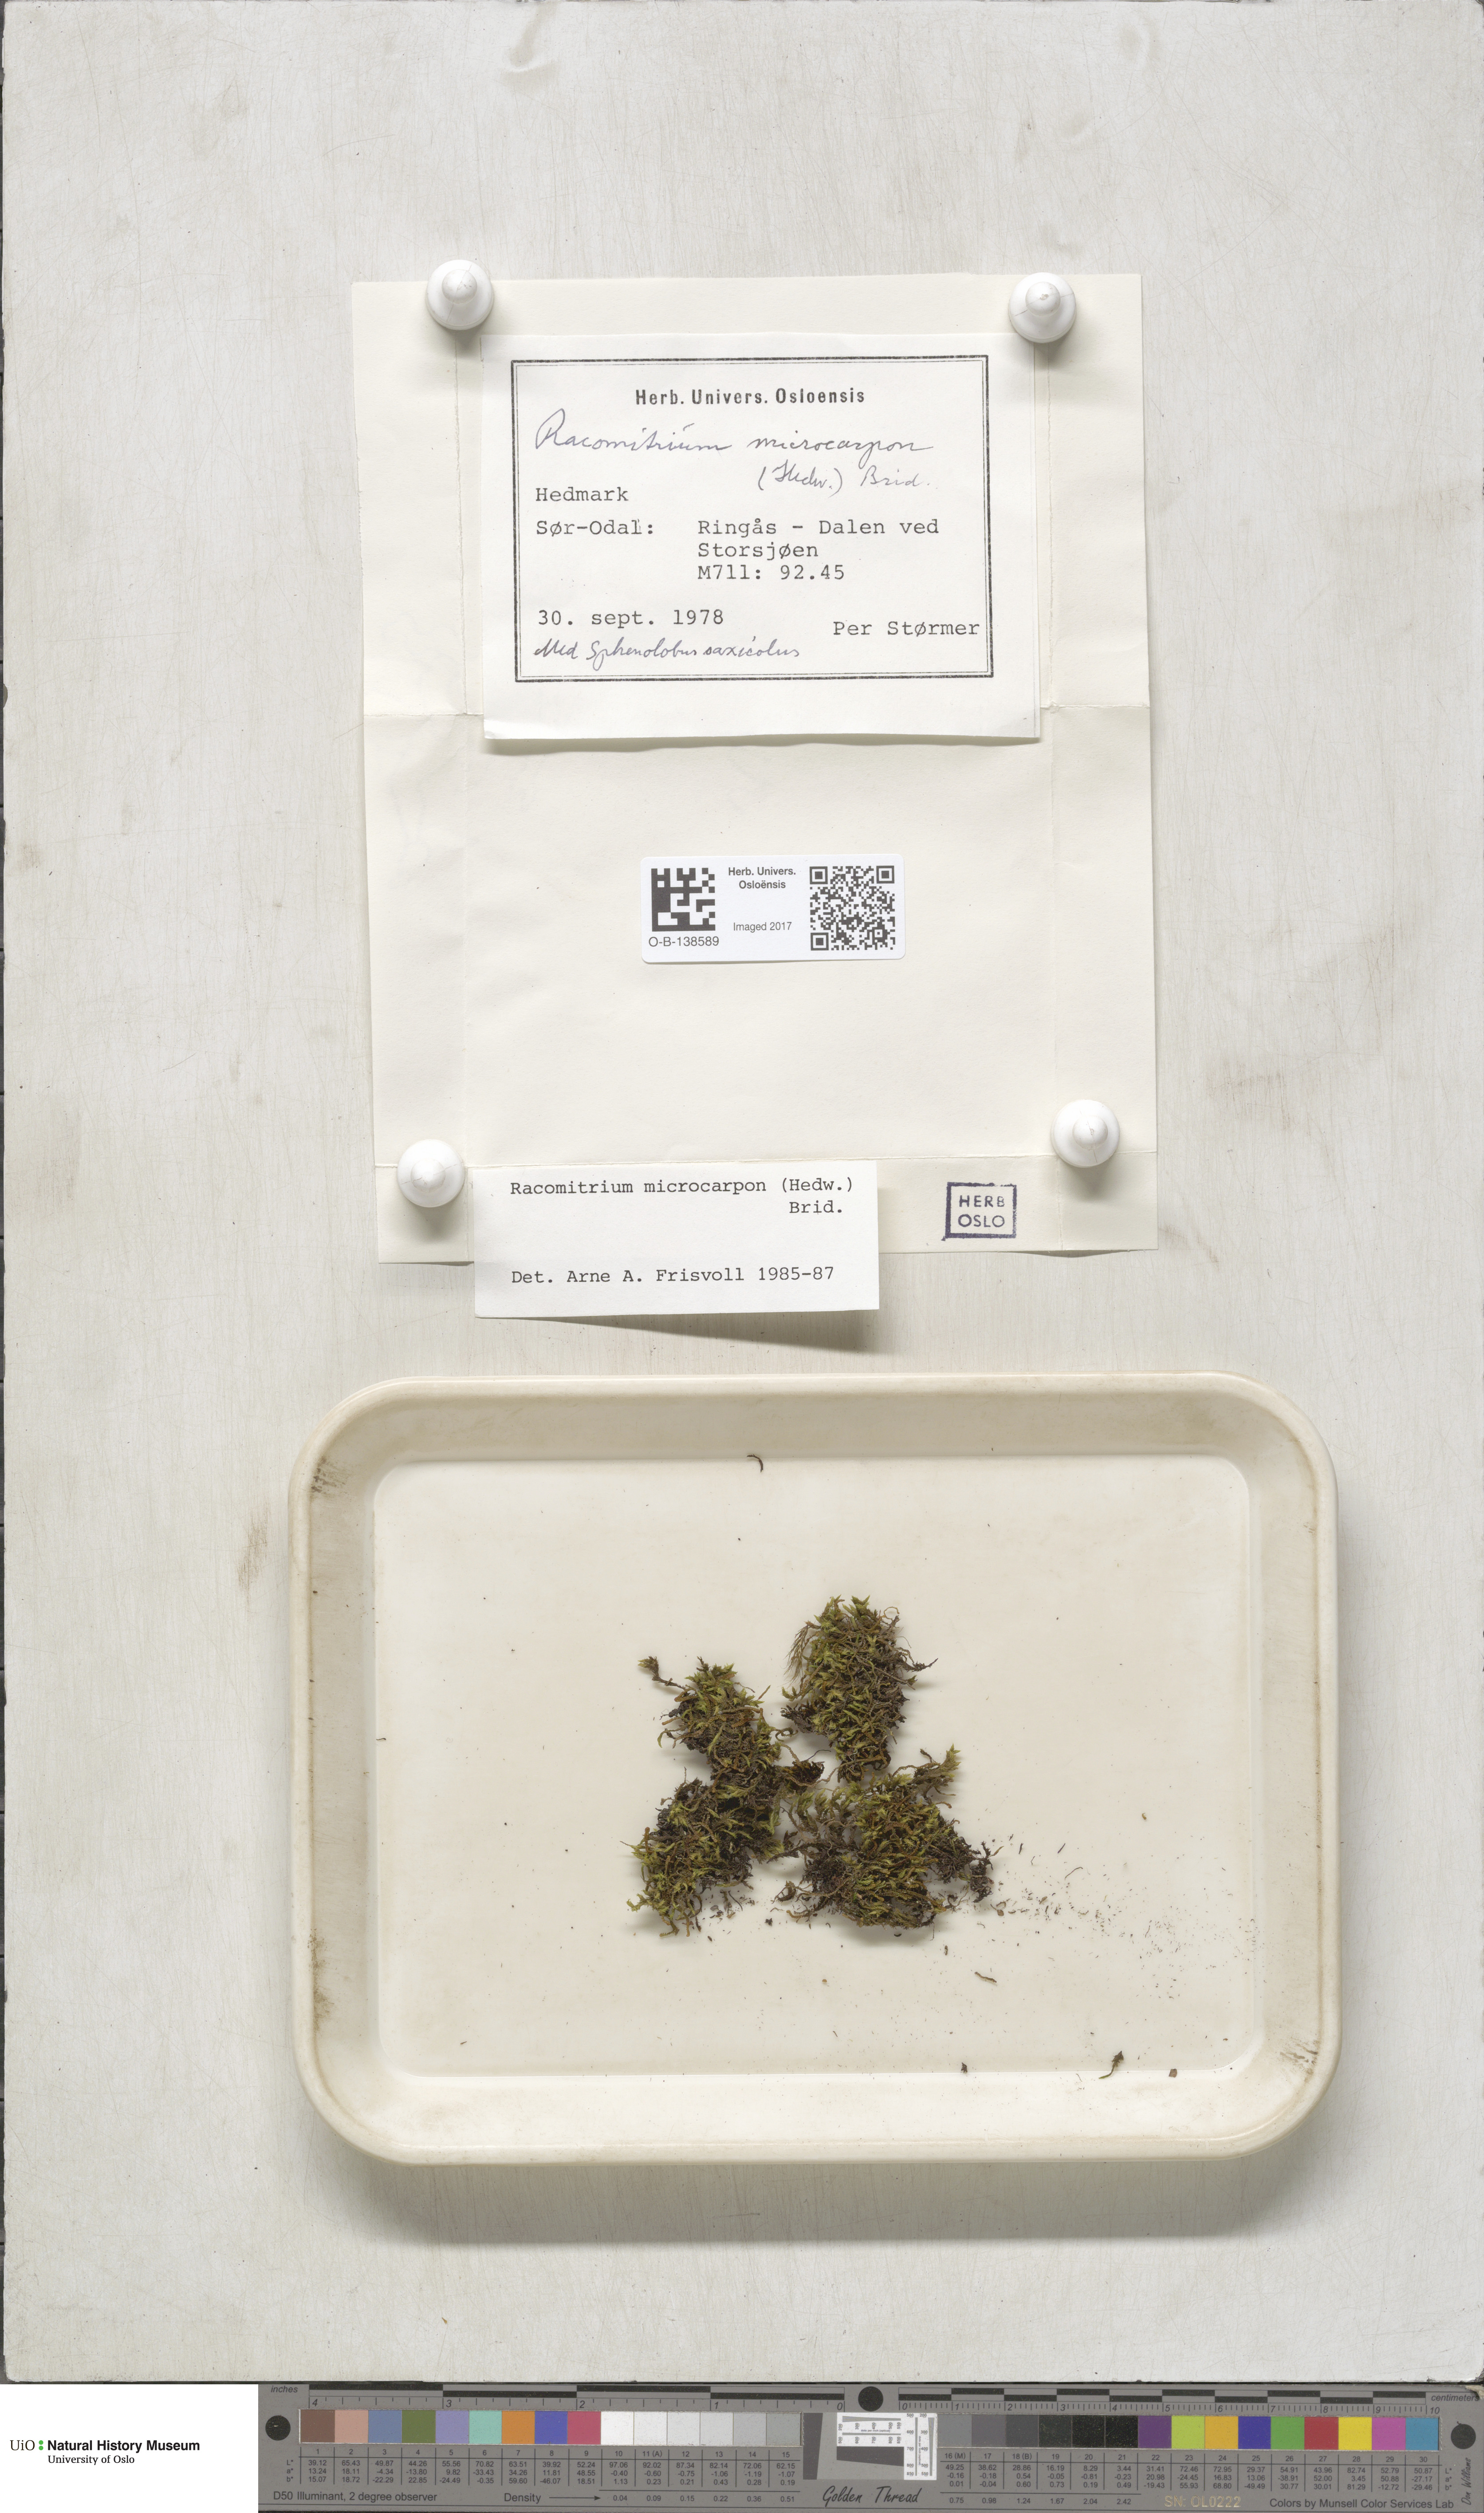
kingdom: Plantae
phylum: Bryophyta
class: Bryopsida
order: Grimmiales
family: Grimmiaceae
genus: Bucklandiella
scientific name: Bucklandiella microcarpos
